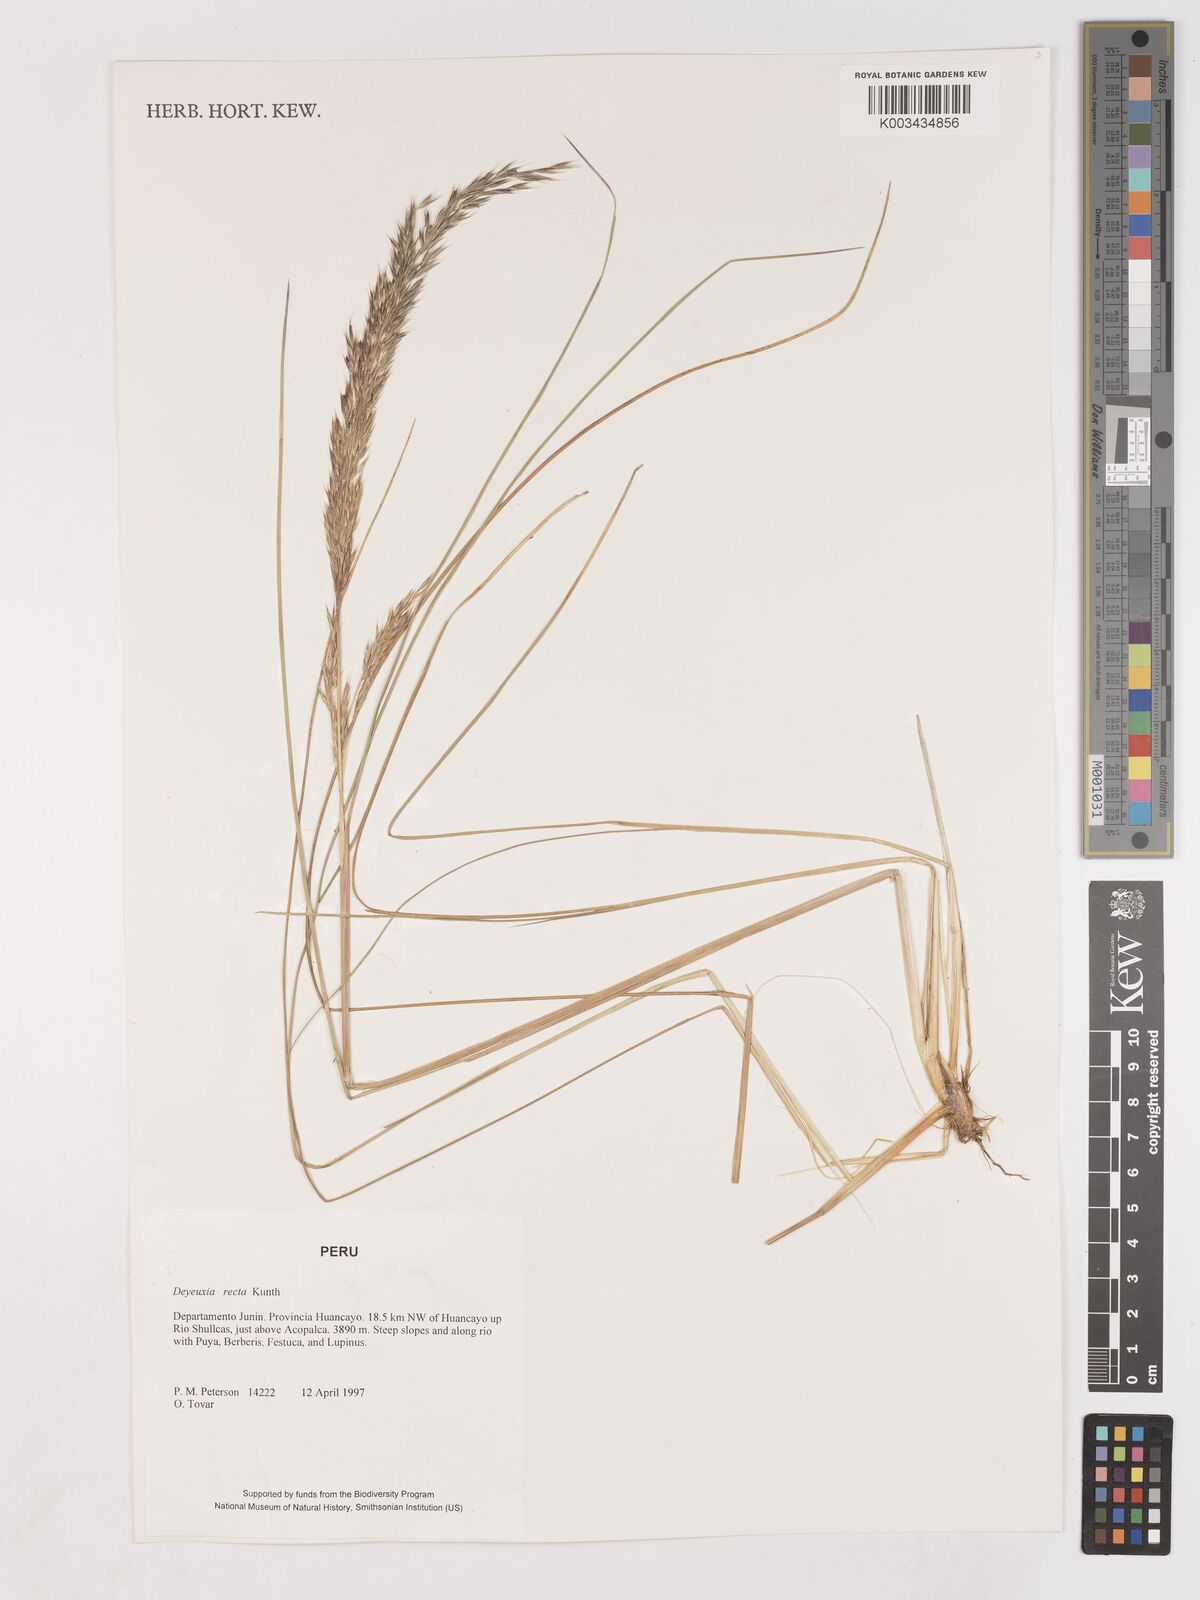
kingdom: Plantae
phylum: Tracheophyta
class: Liliopsida
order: Poales
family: Poaceae
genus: Cinnagrostis
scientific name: Cinnagrostis recta
